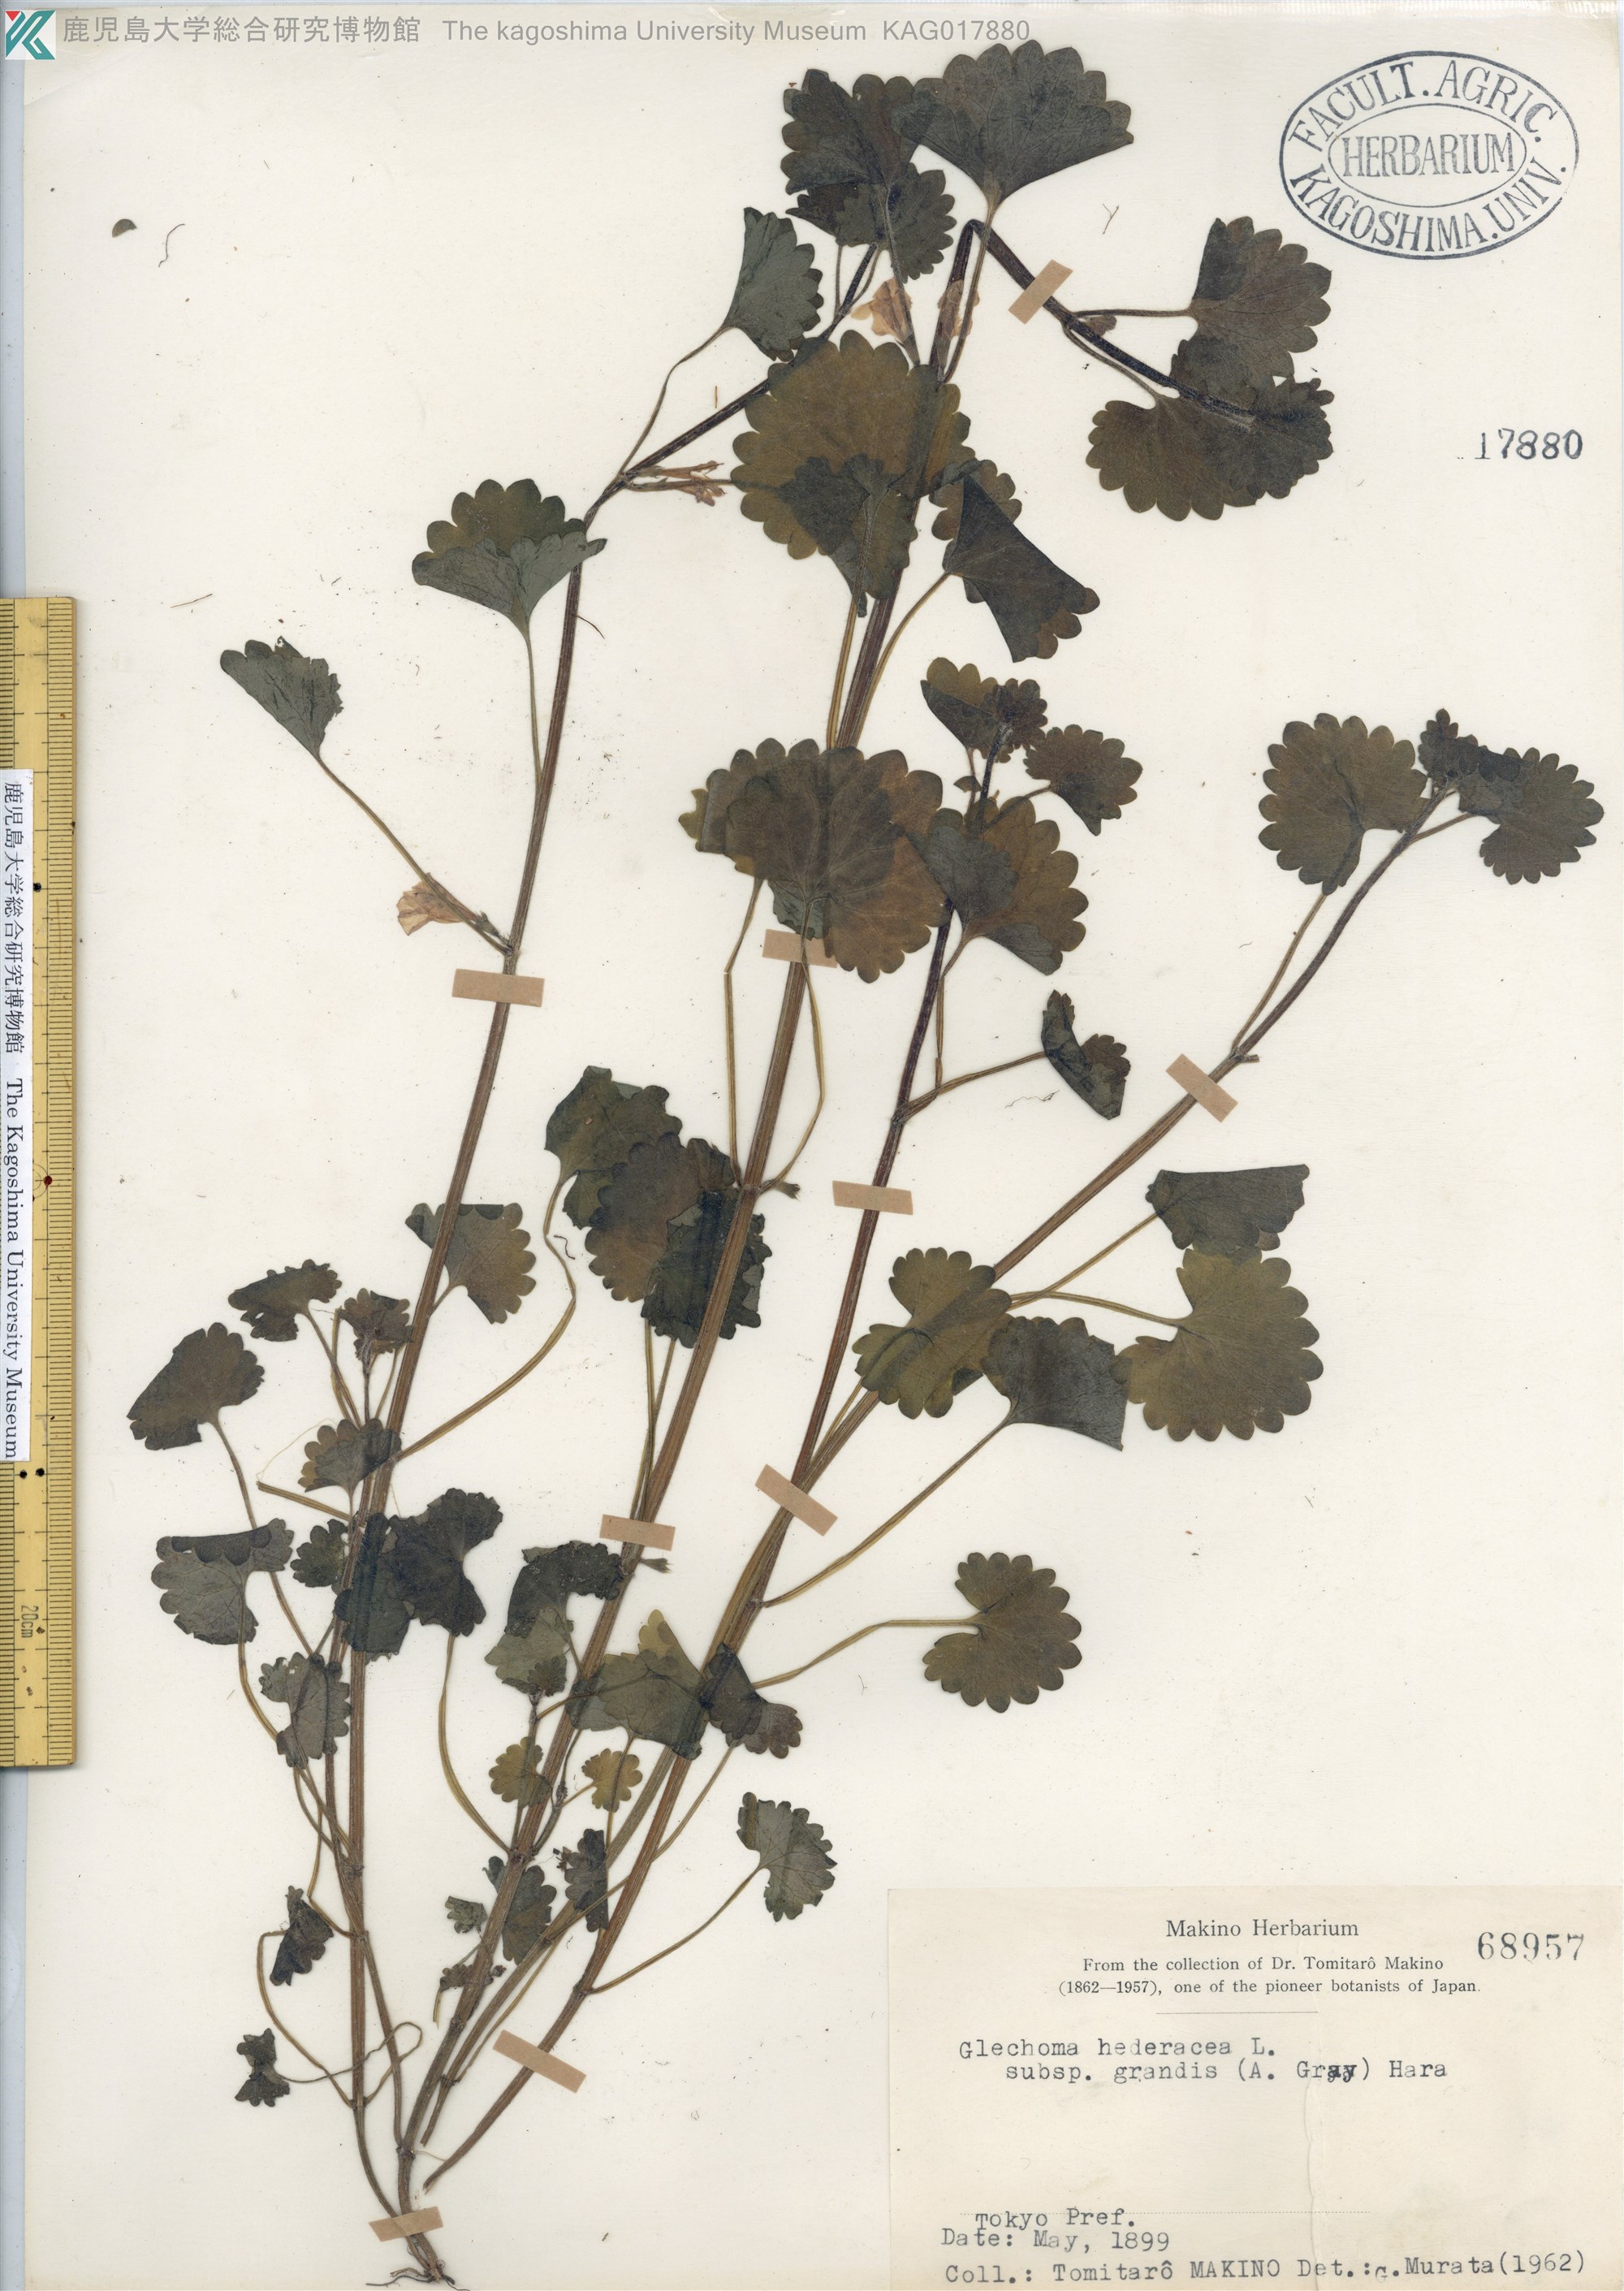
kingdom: Plantae
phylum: Tracheophyta
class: Magnoliopsida
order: Lamiales
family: Lamiaceae
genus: Glechoma
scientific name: Glechoma grandis
